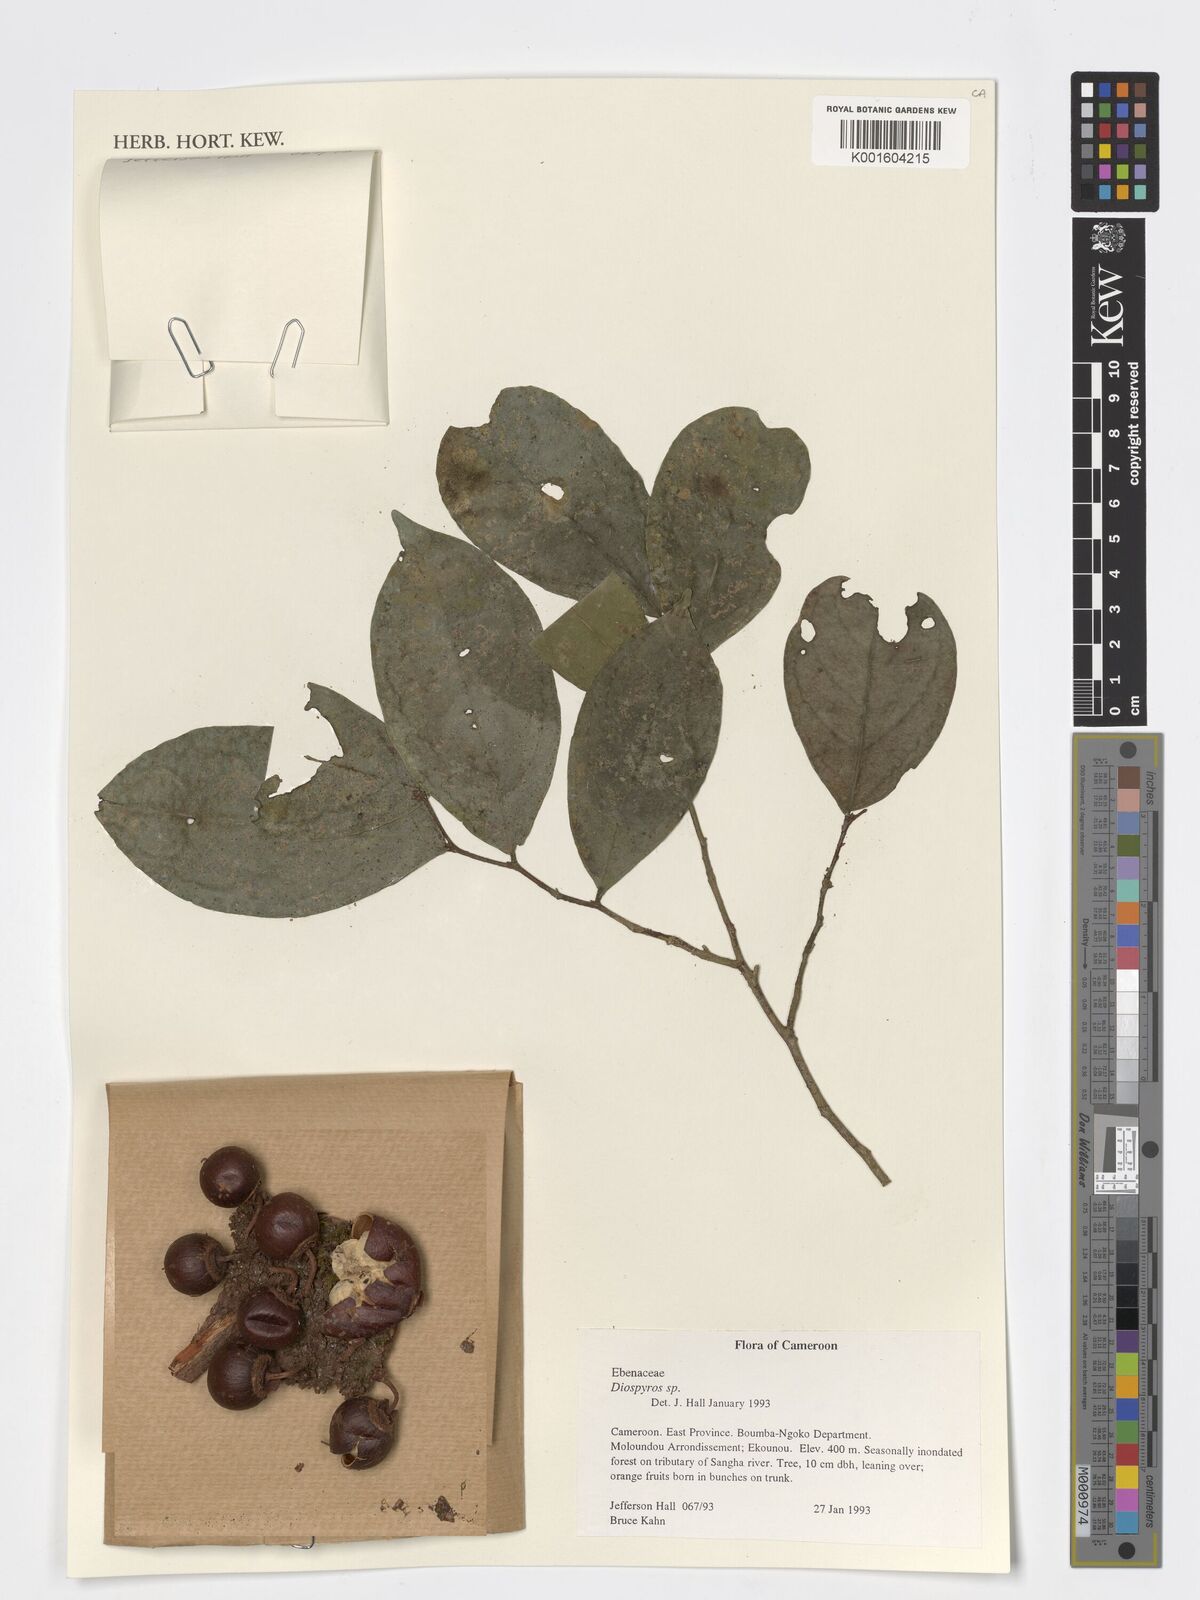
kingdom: Plantae
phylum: Tracheophyta
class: Magnoliopsida
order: Ericales
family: Ebenaceae
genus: Diospyros
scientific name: Diospyros
